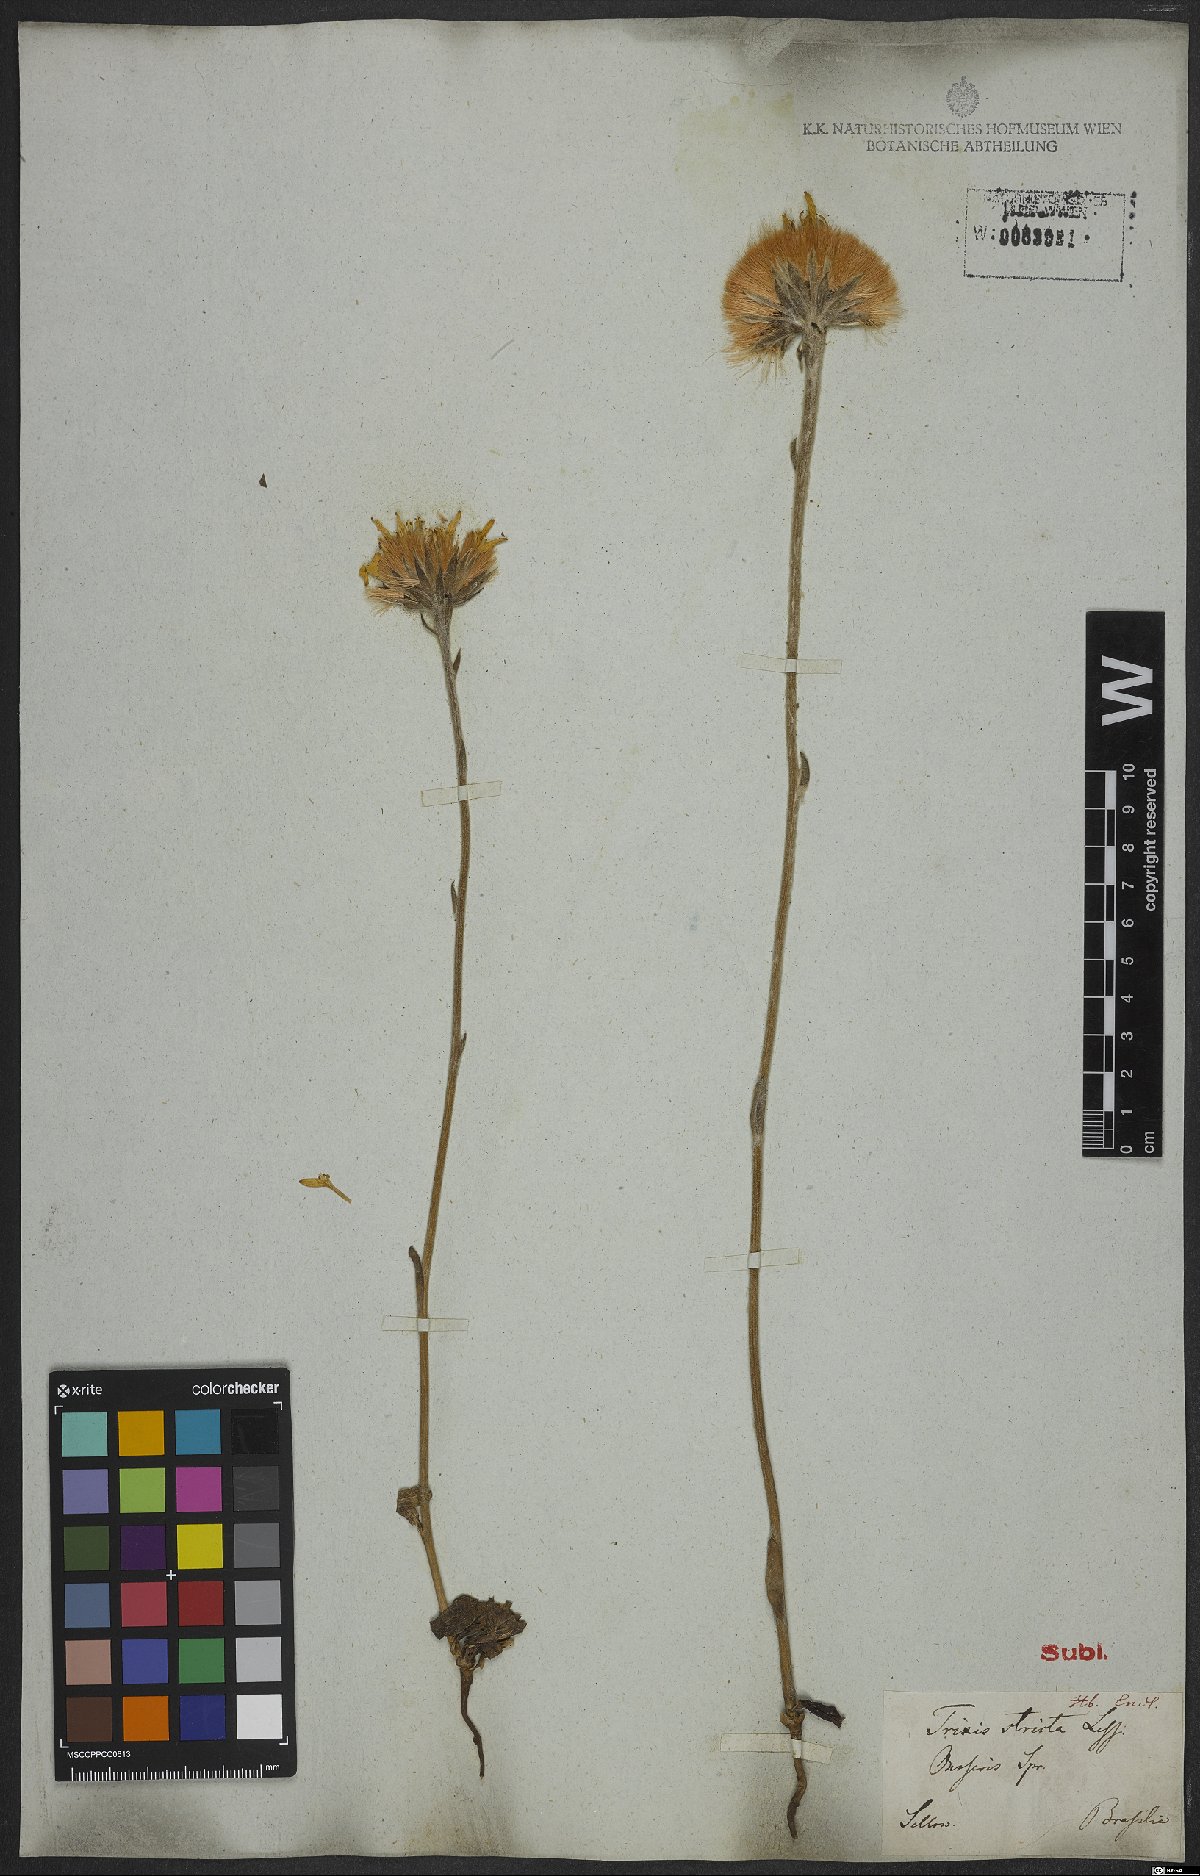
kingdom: Plantae
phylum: Tracheophyta
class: Magnoliopsida
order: Asterales
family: Asteraceae
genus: Trixis
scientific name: Trixis nobilis
